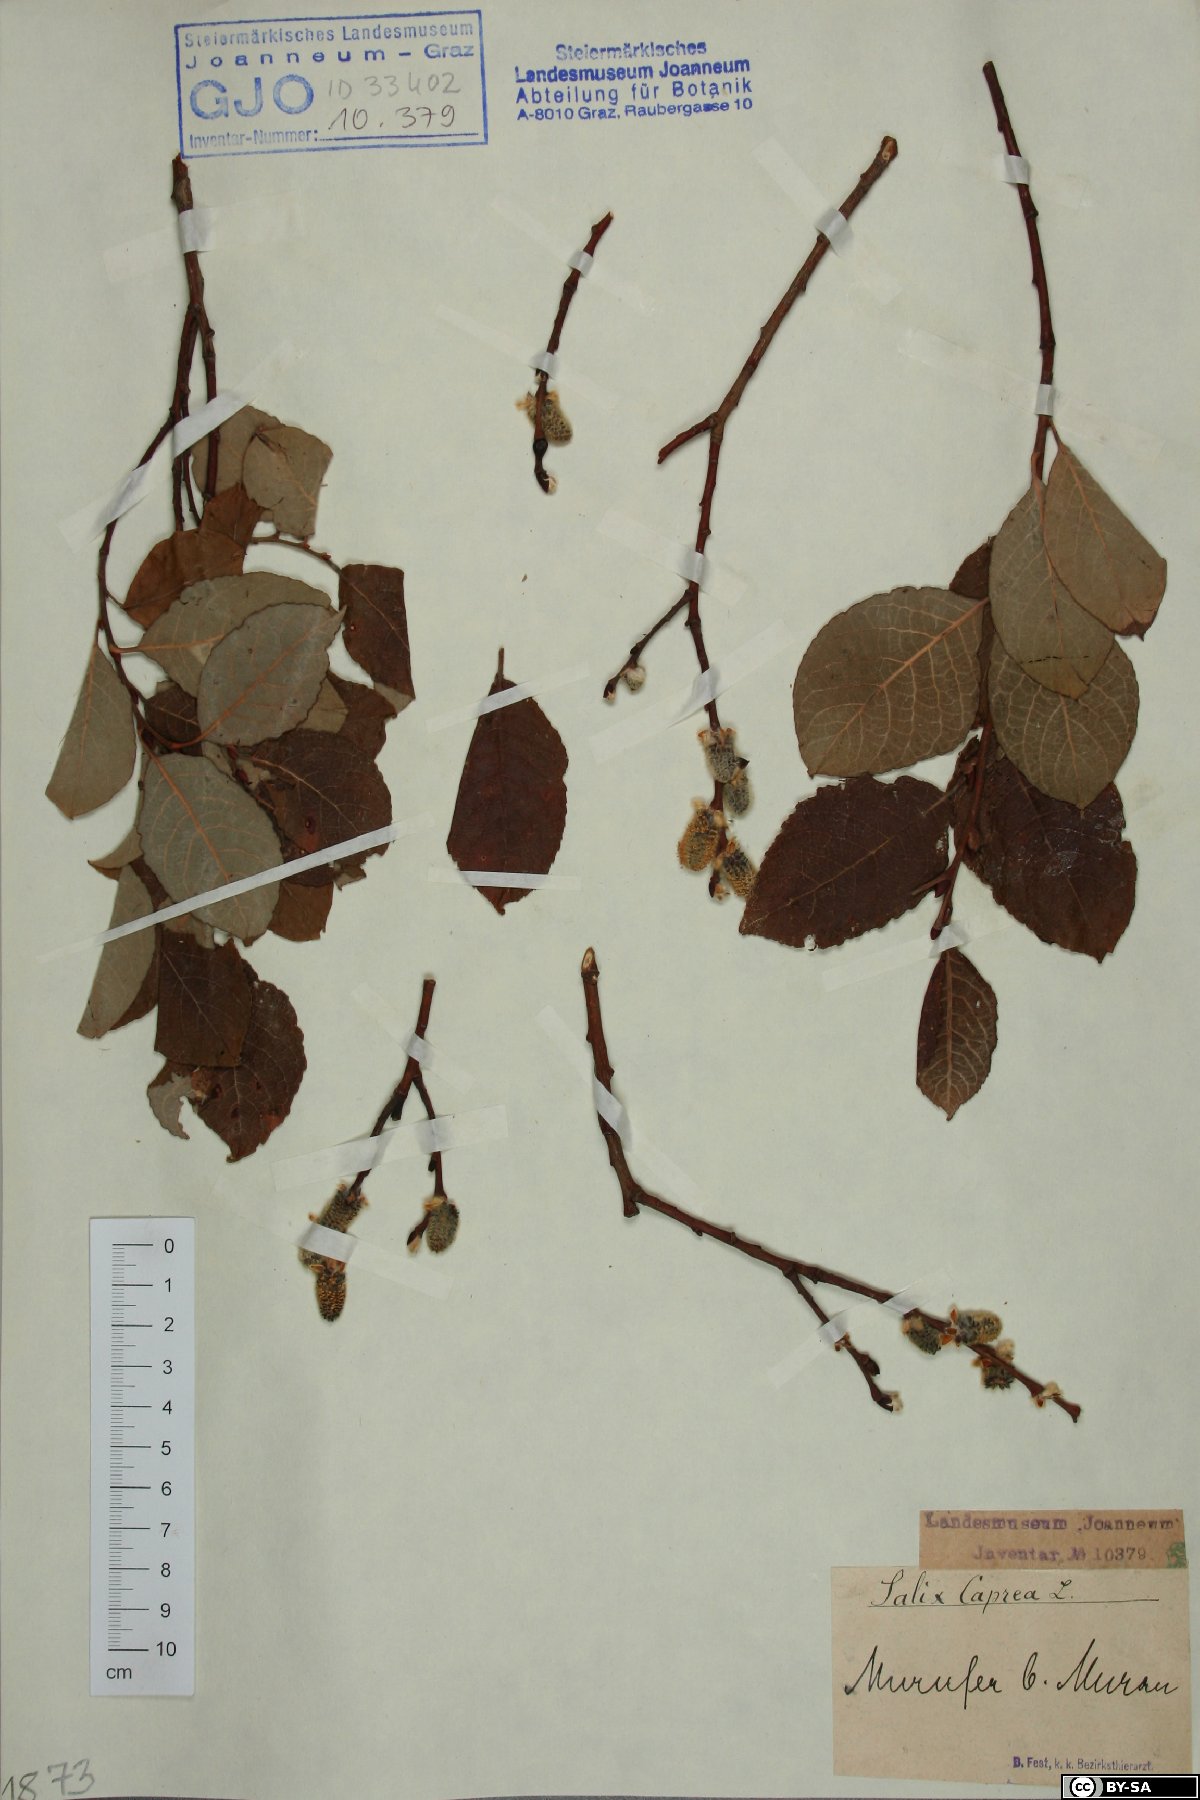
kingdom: Plantae
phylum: Tracheophyta
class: Magnoliopsida
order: Malpighiales
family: Salicaceae
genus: Salix
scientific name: Salix caprea
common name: Goat willow
